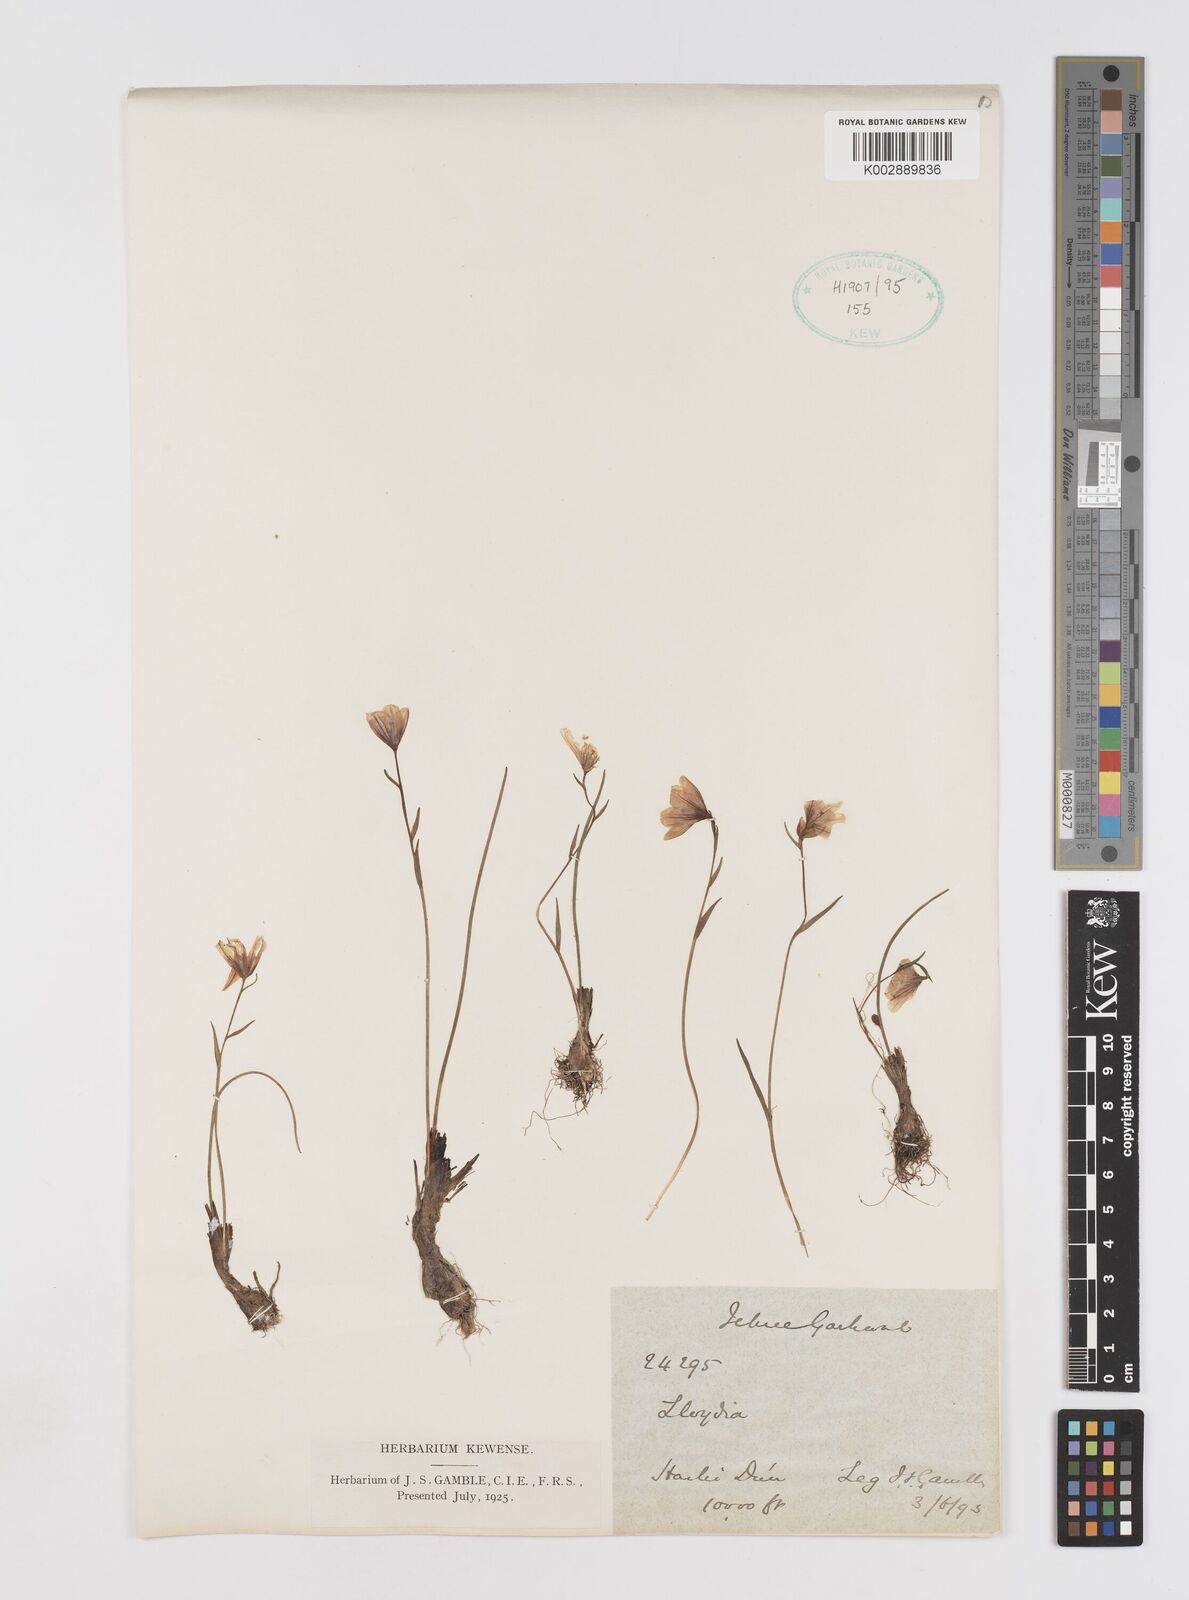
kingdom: Plantae
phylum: Tracheophyta
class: Liliopsida
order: Liliales
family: Liliaceae
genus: Gagea
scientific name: Gagea
